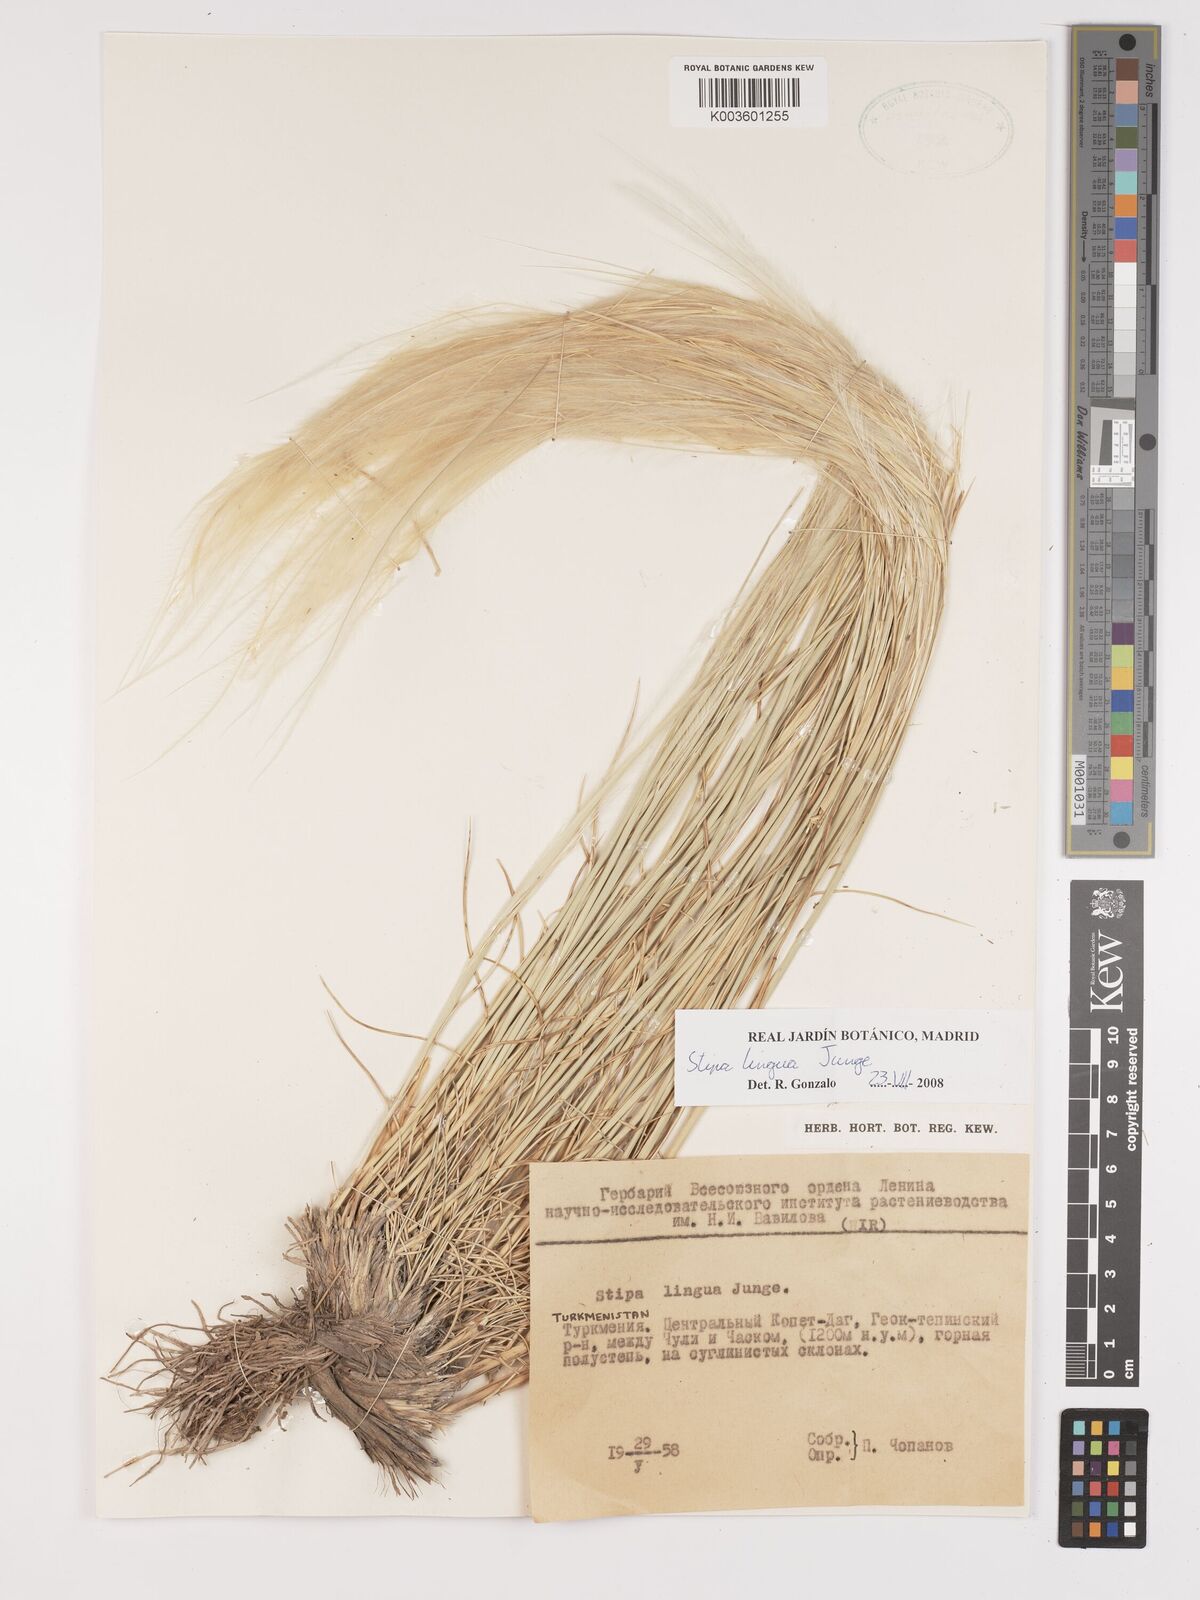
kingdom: Plantae
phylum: Tracheophyta
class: Liliopsida
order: Poales
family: Poaceae
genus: Stipa
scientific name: Stipa lingua
